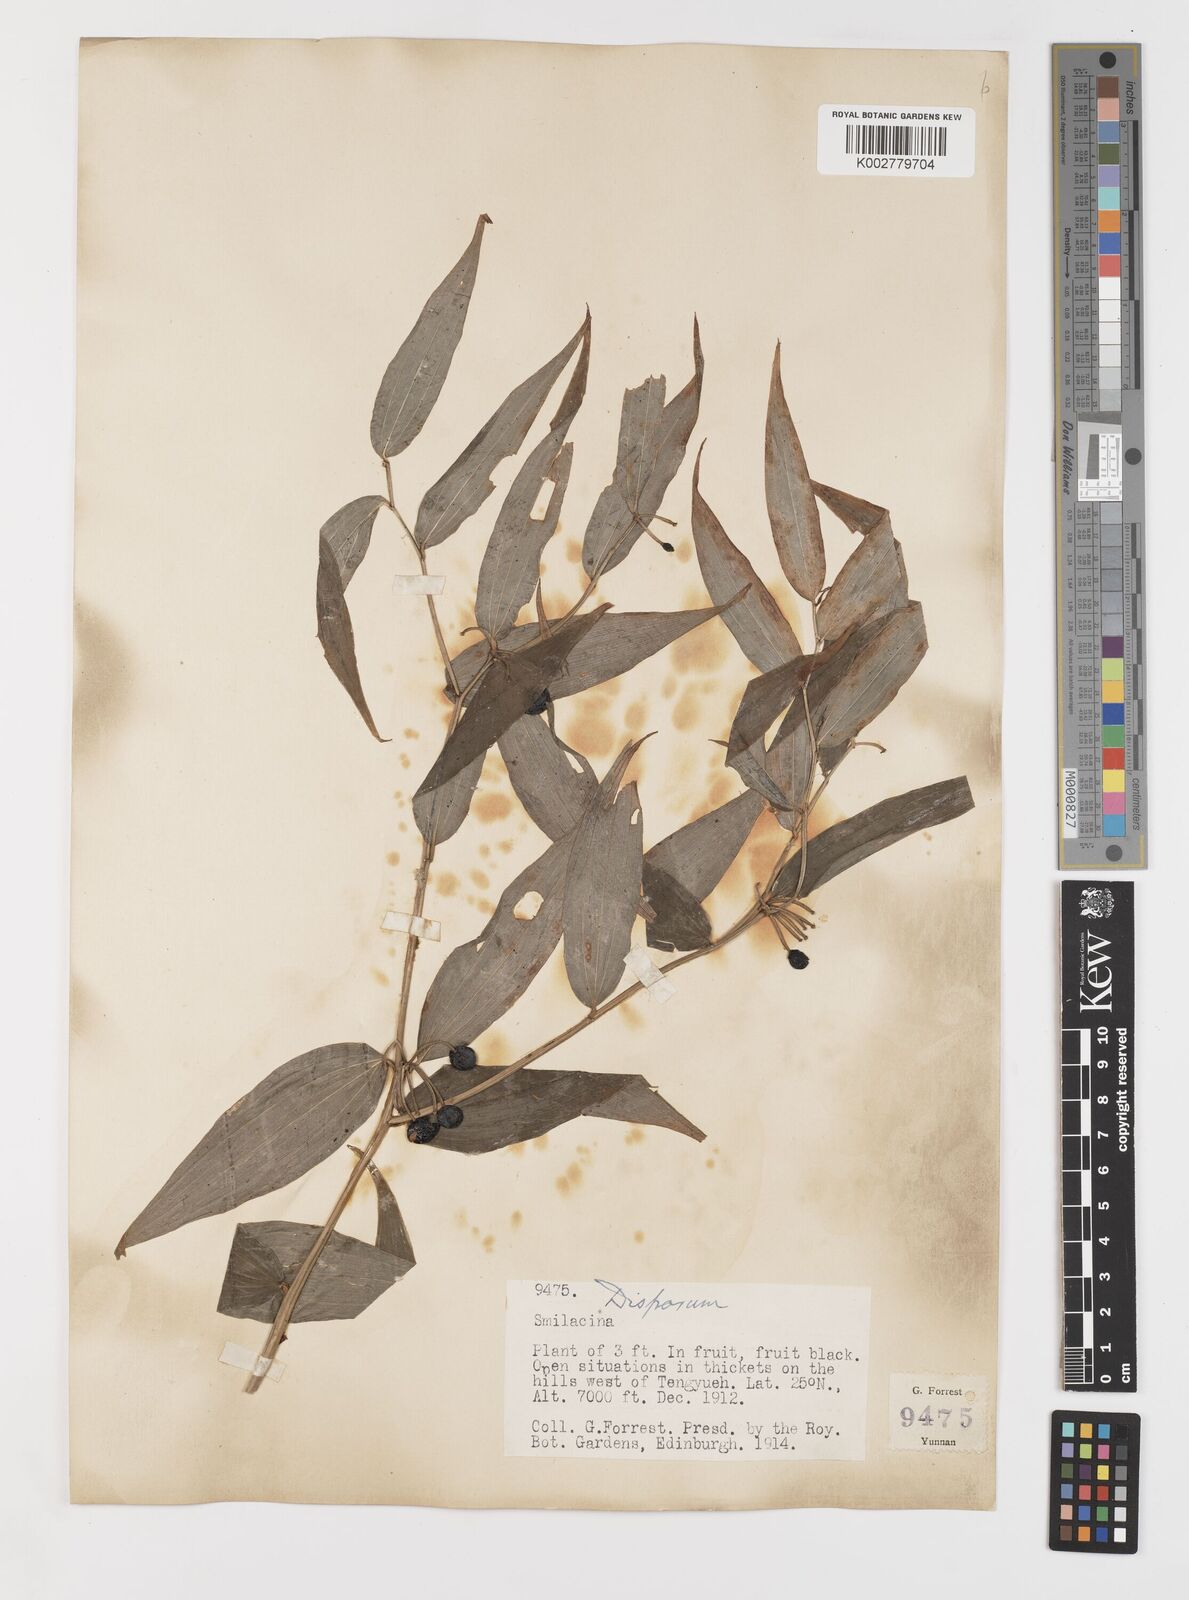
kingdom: Plantae
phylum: Tracheophyta
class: Liliopsida
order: Liliales
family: Colchicaceae
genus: Disporum
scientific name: Disporum cantoniense
